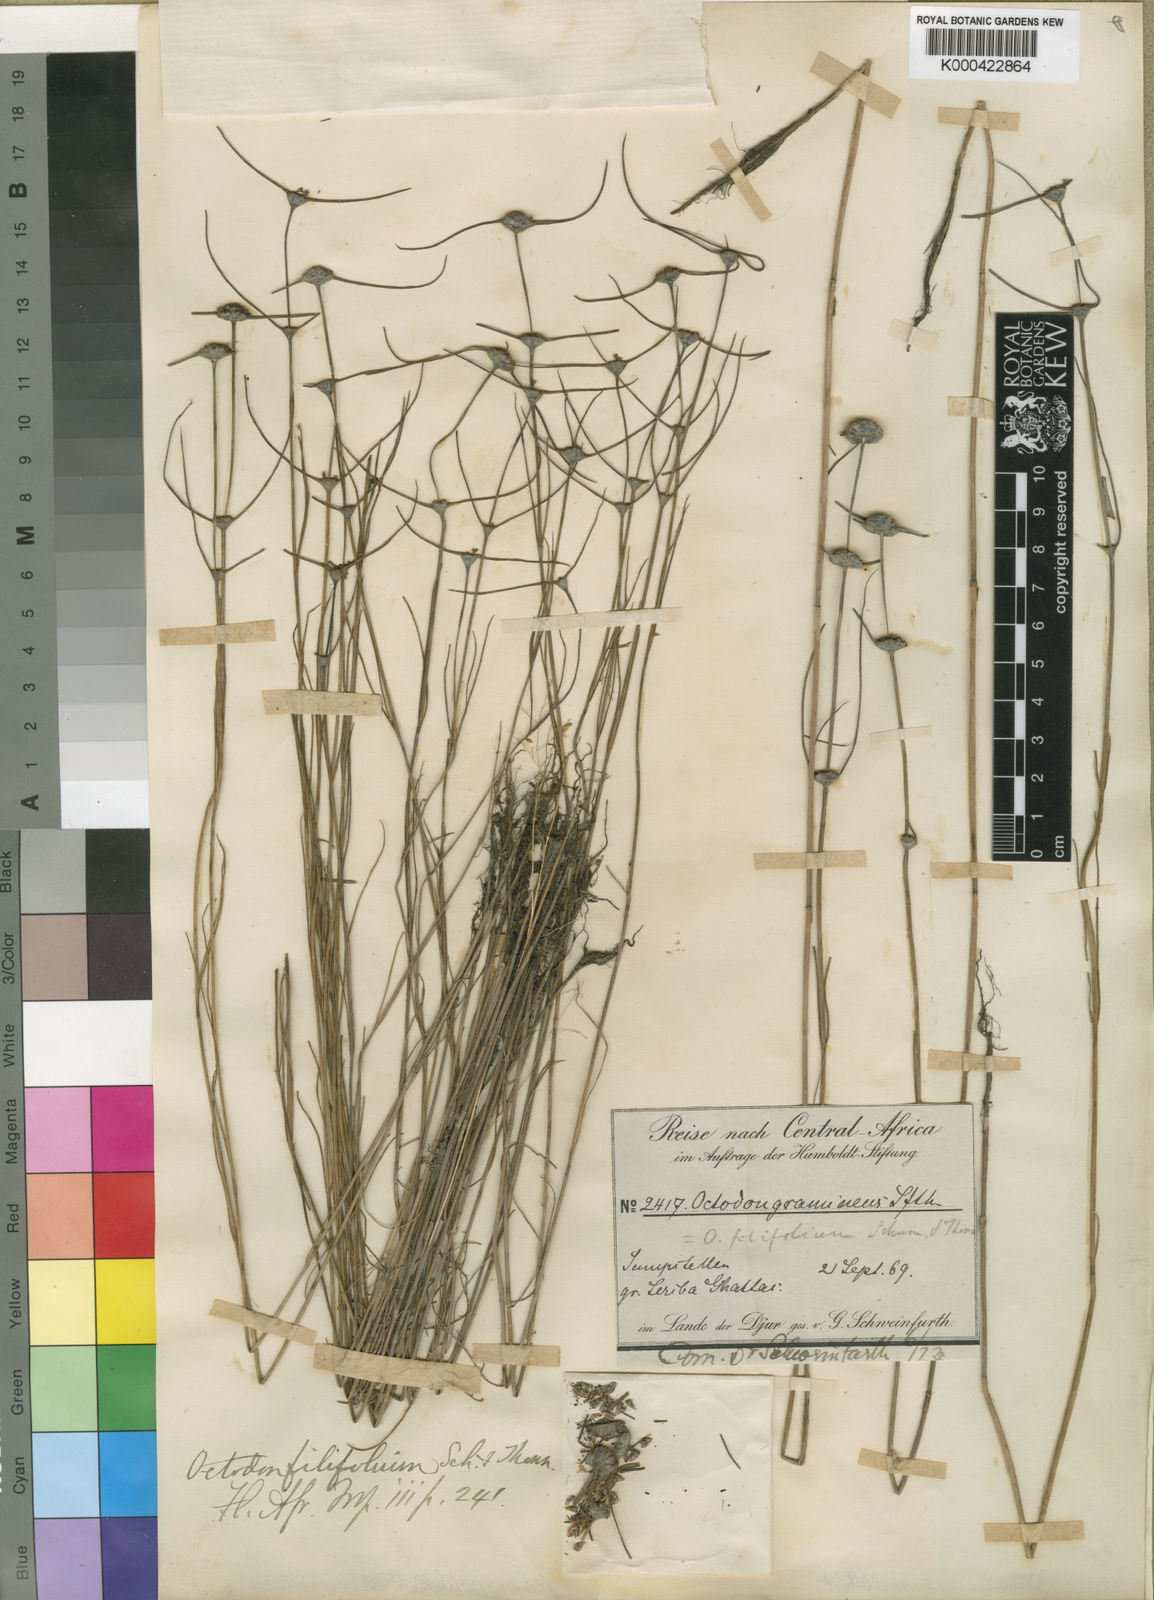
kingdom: Plantae
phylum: Tracheophyta
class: Magnoliopsida
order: Gentianales
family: Rubiaceae
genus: Spermacoce
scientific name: Spermacoce filifolia
